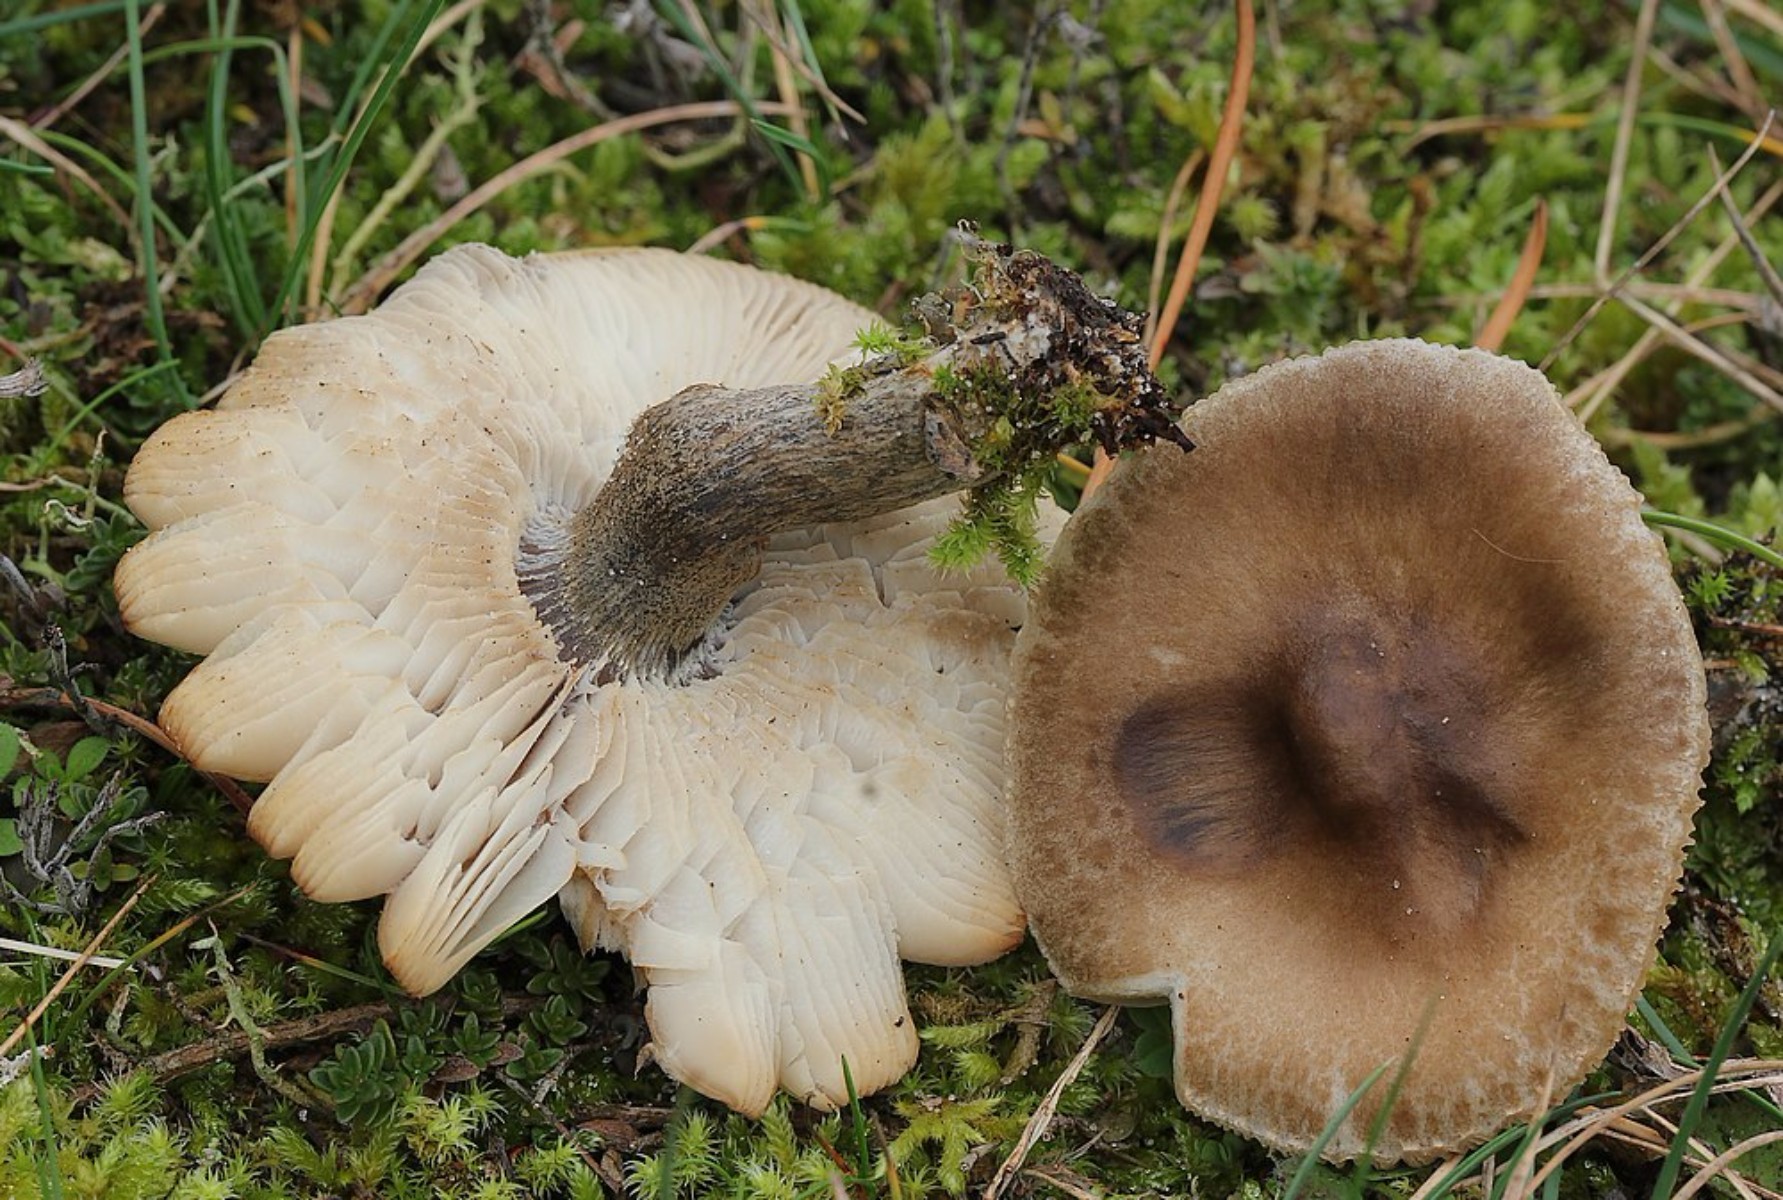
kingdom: Fungi
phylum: Basidiomycota
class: Agaricomycetes
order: Agaricales
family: Tricholomataceae
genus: Melanoleuca
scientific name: Melanoleuca
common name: munkehat
